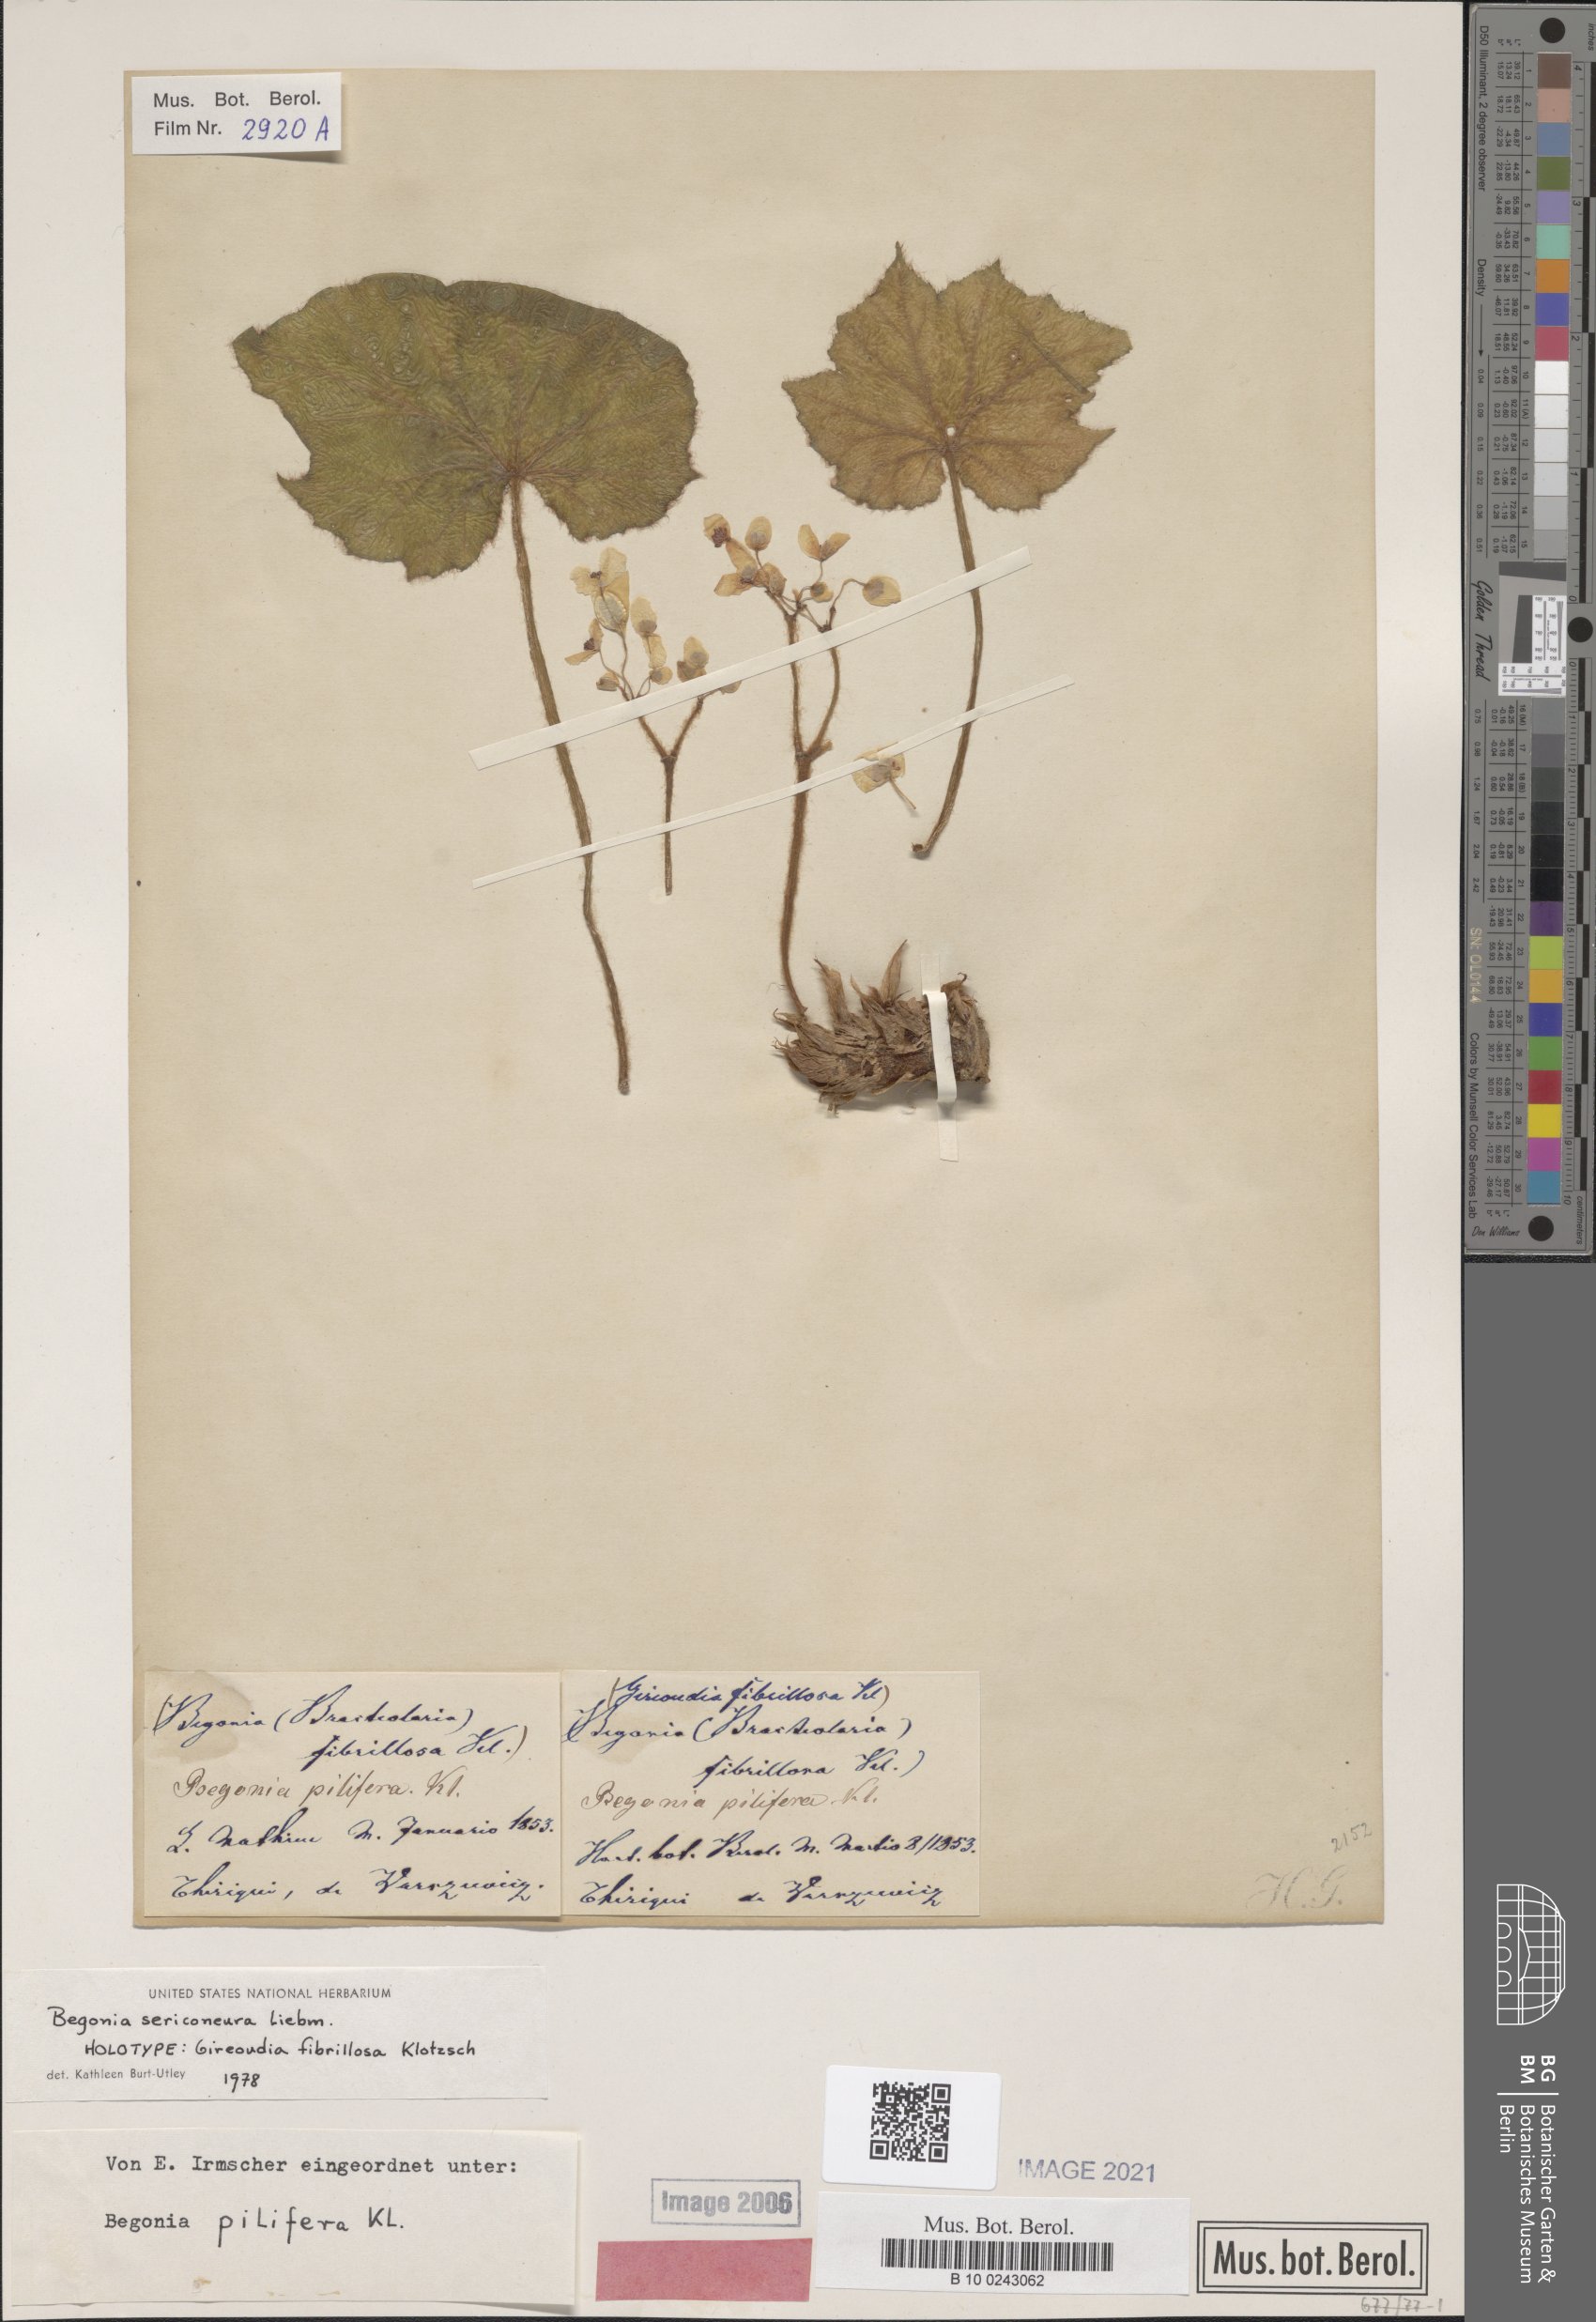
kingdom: Plantae
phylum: Tracheophyta
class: Magnoliopsida
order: Cucurbitales
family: Begoniaceae
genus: Begonia
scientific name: Begonia sericoneura
